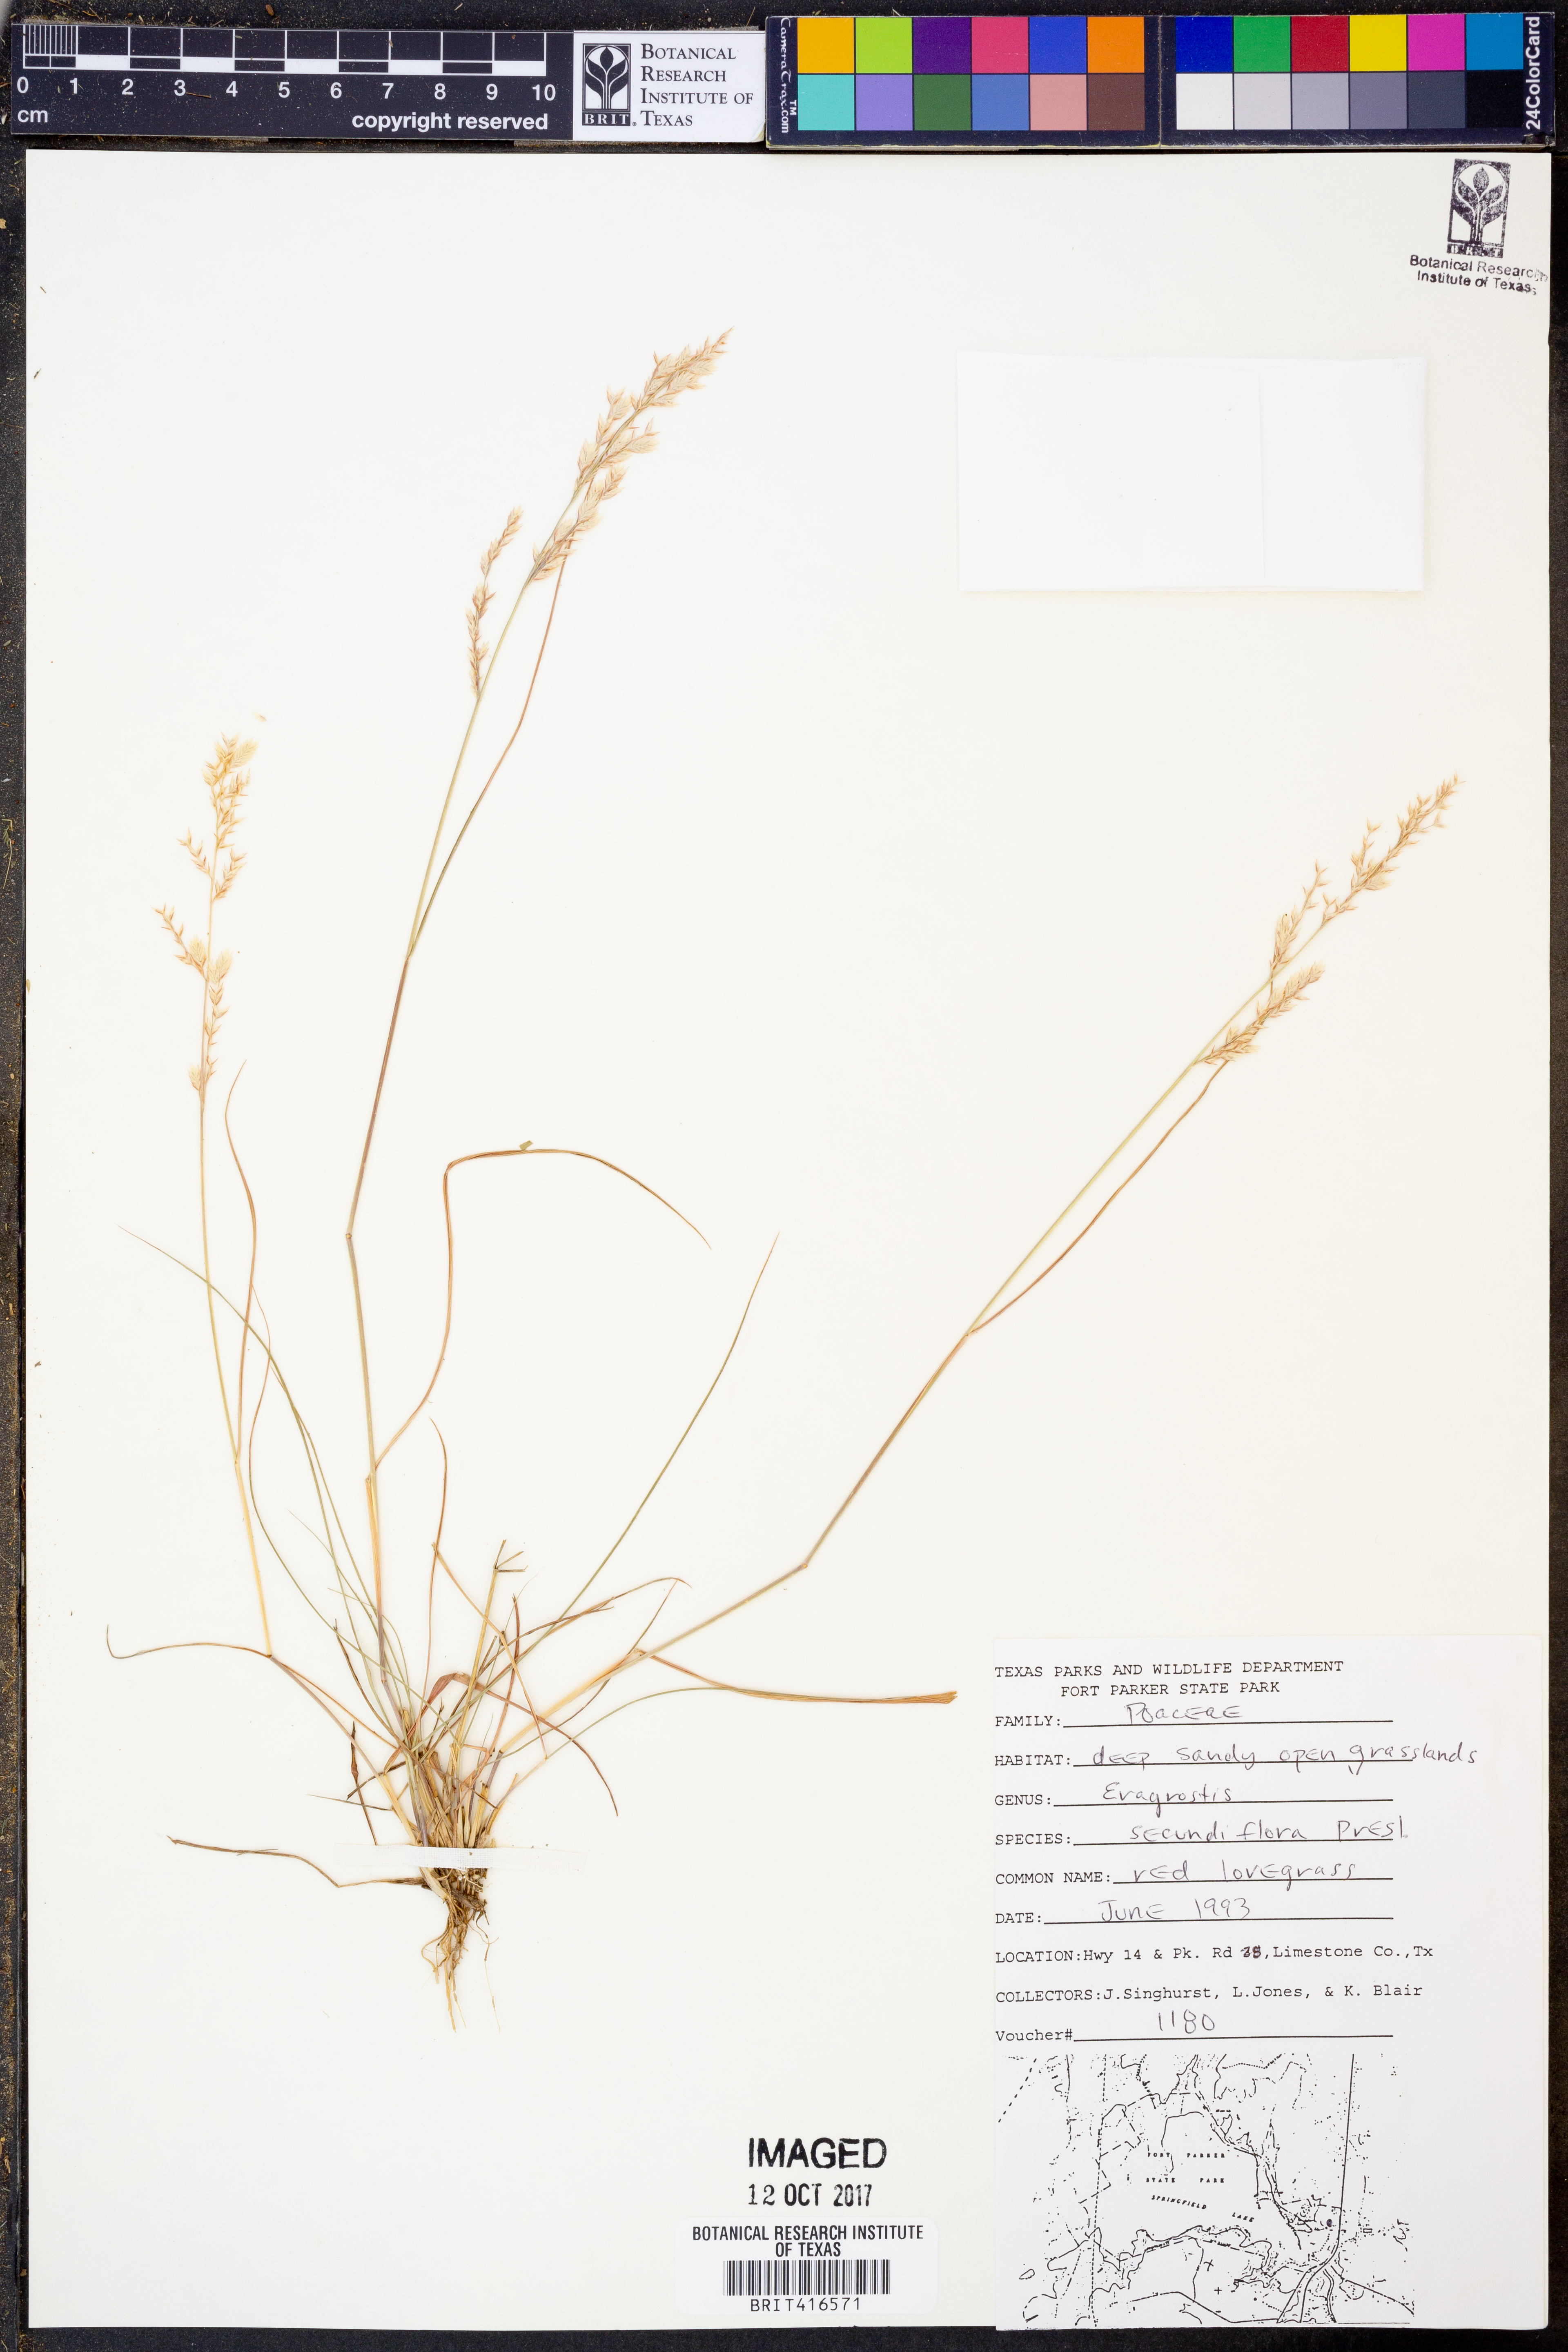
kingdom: Plantae
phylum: Tracheophyta
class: Liliopsida
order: Poales
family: Poaceae
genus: Eragrostis
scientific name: Eragrostis secundiflora
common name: Red love grass
